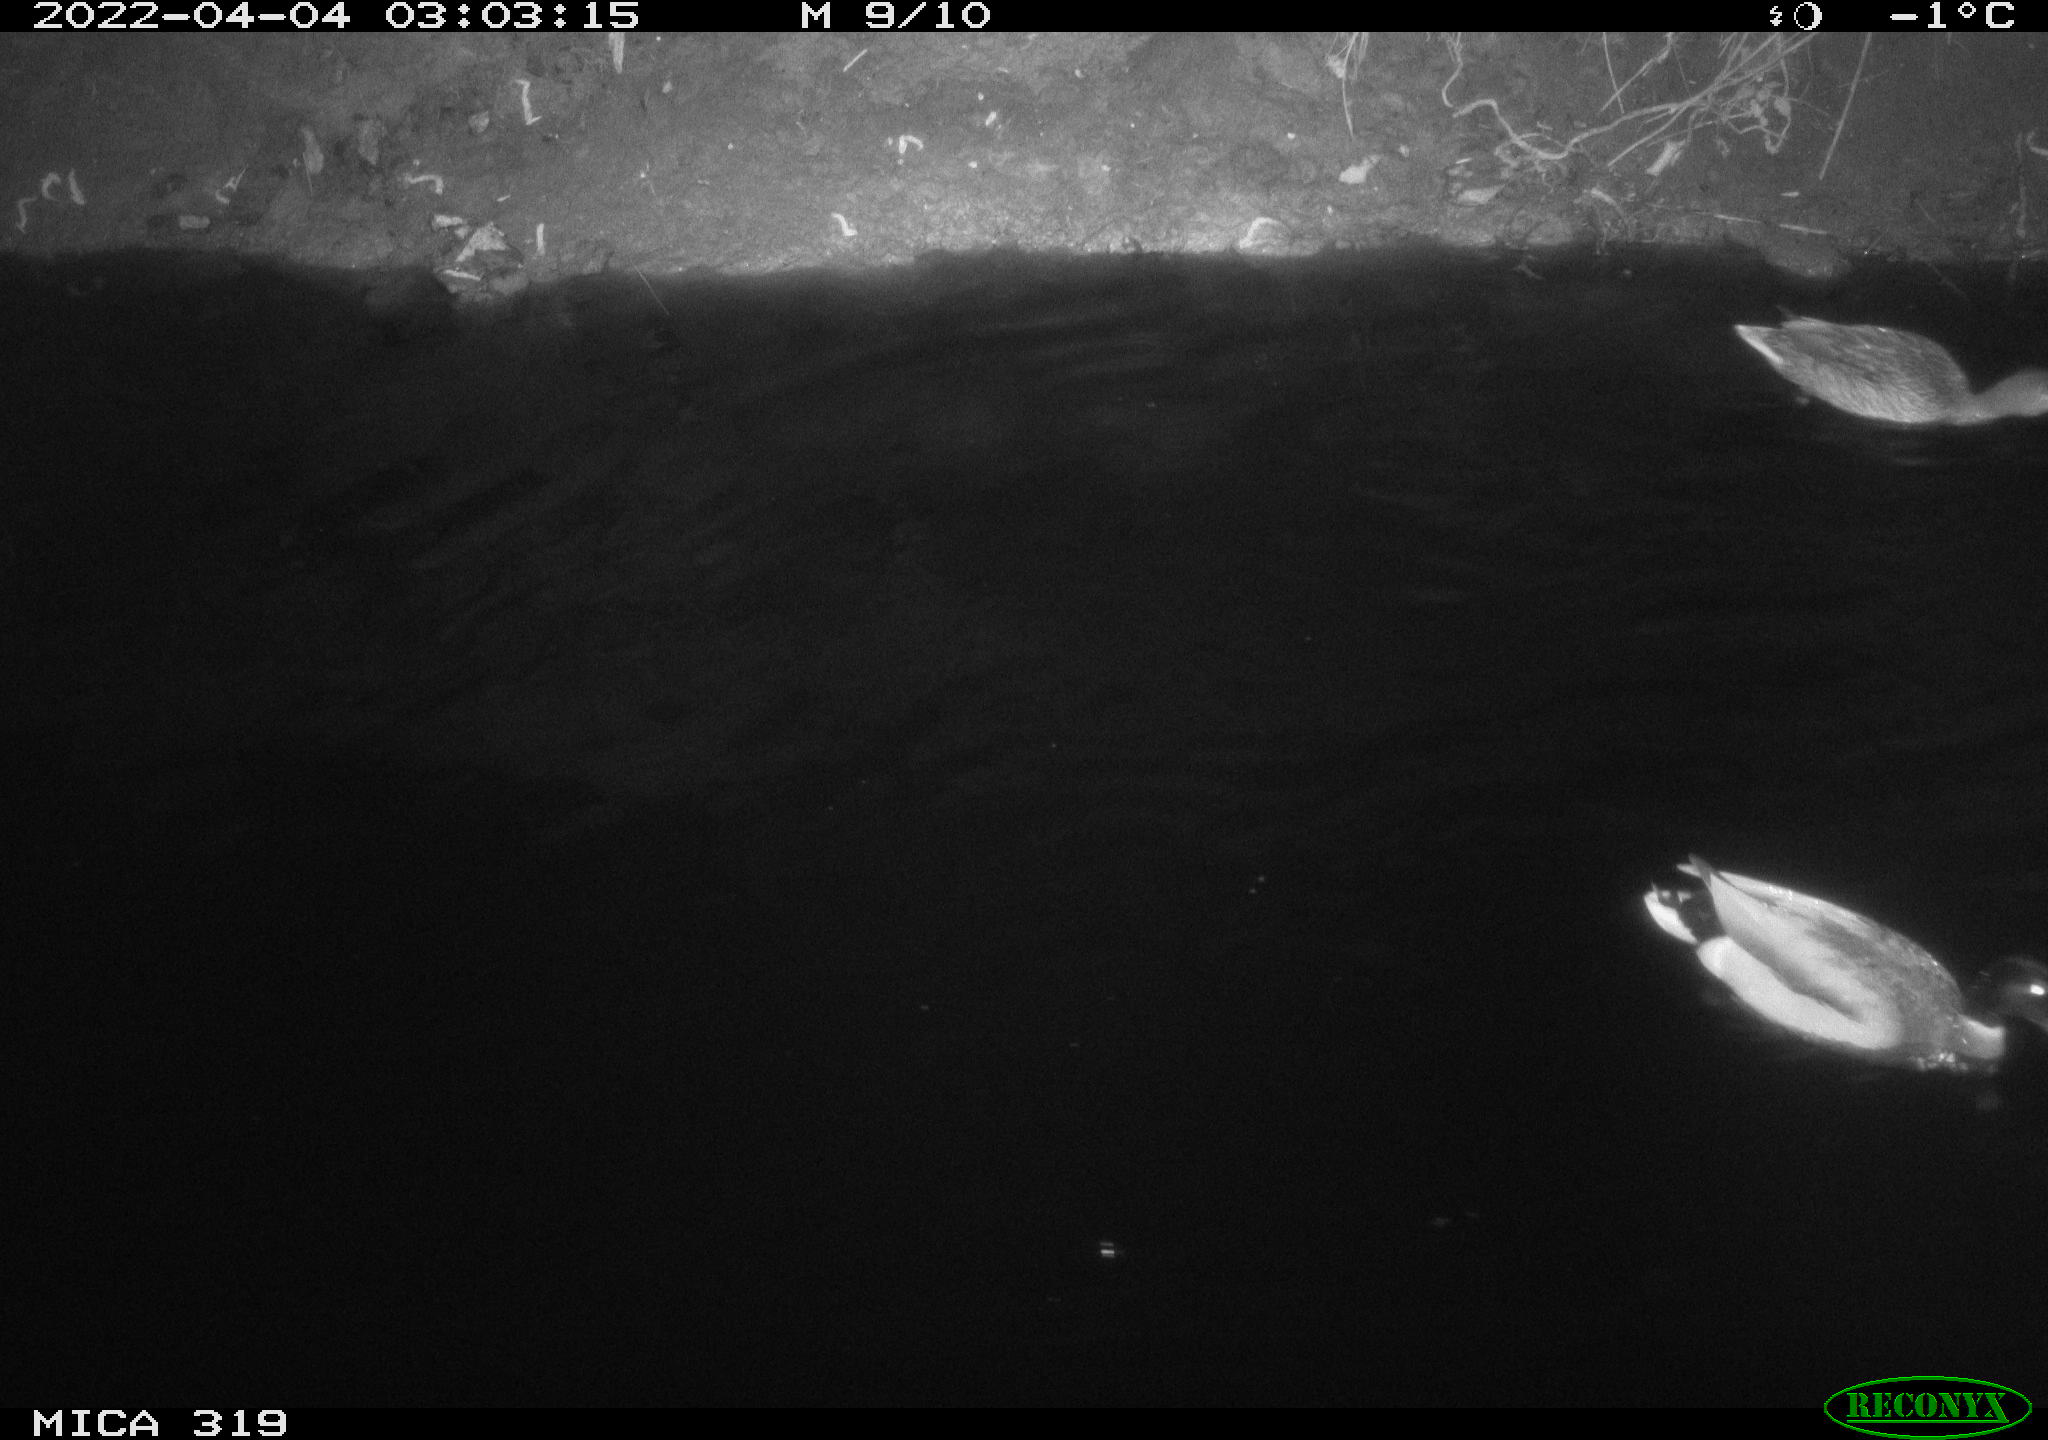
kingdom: Animalia
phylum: Chordata
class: Aves
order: Anseriformes
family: Anatidae
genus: Anas
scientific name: Anas platyrhynchos
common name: Mallard
